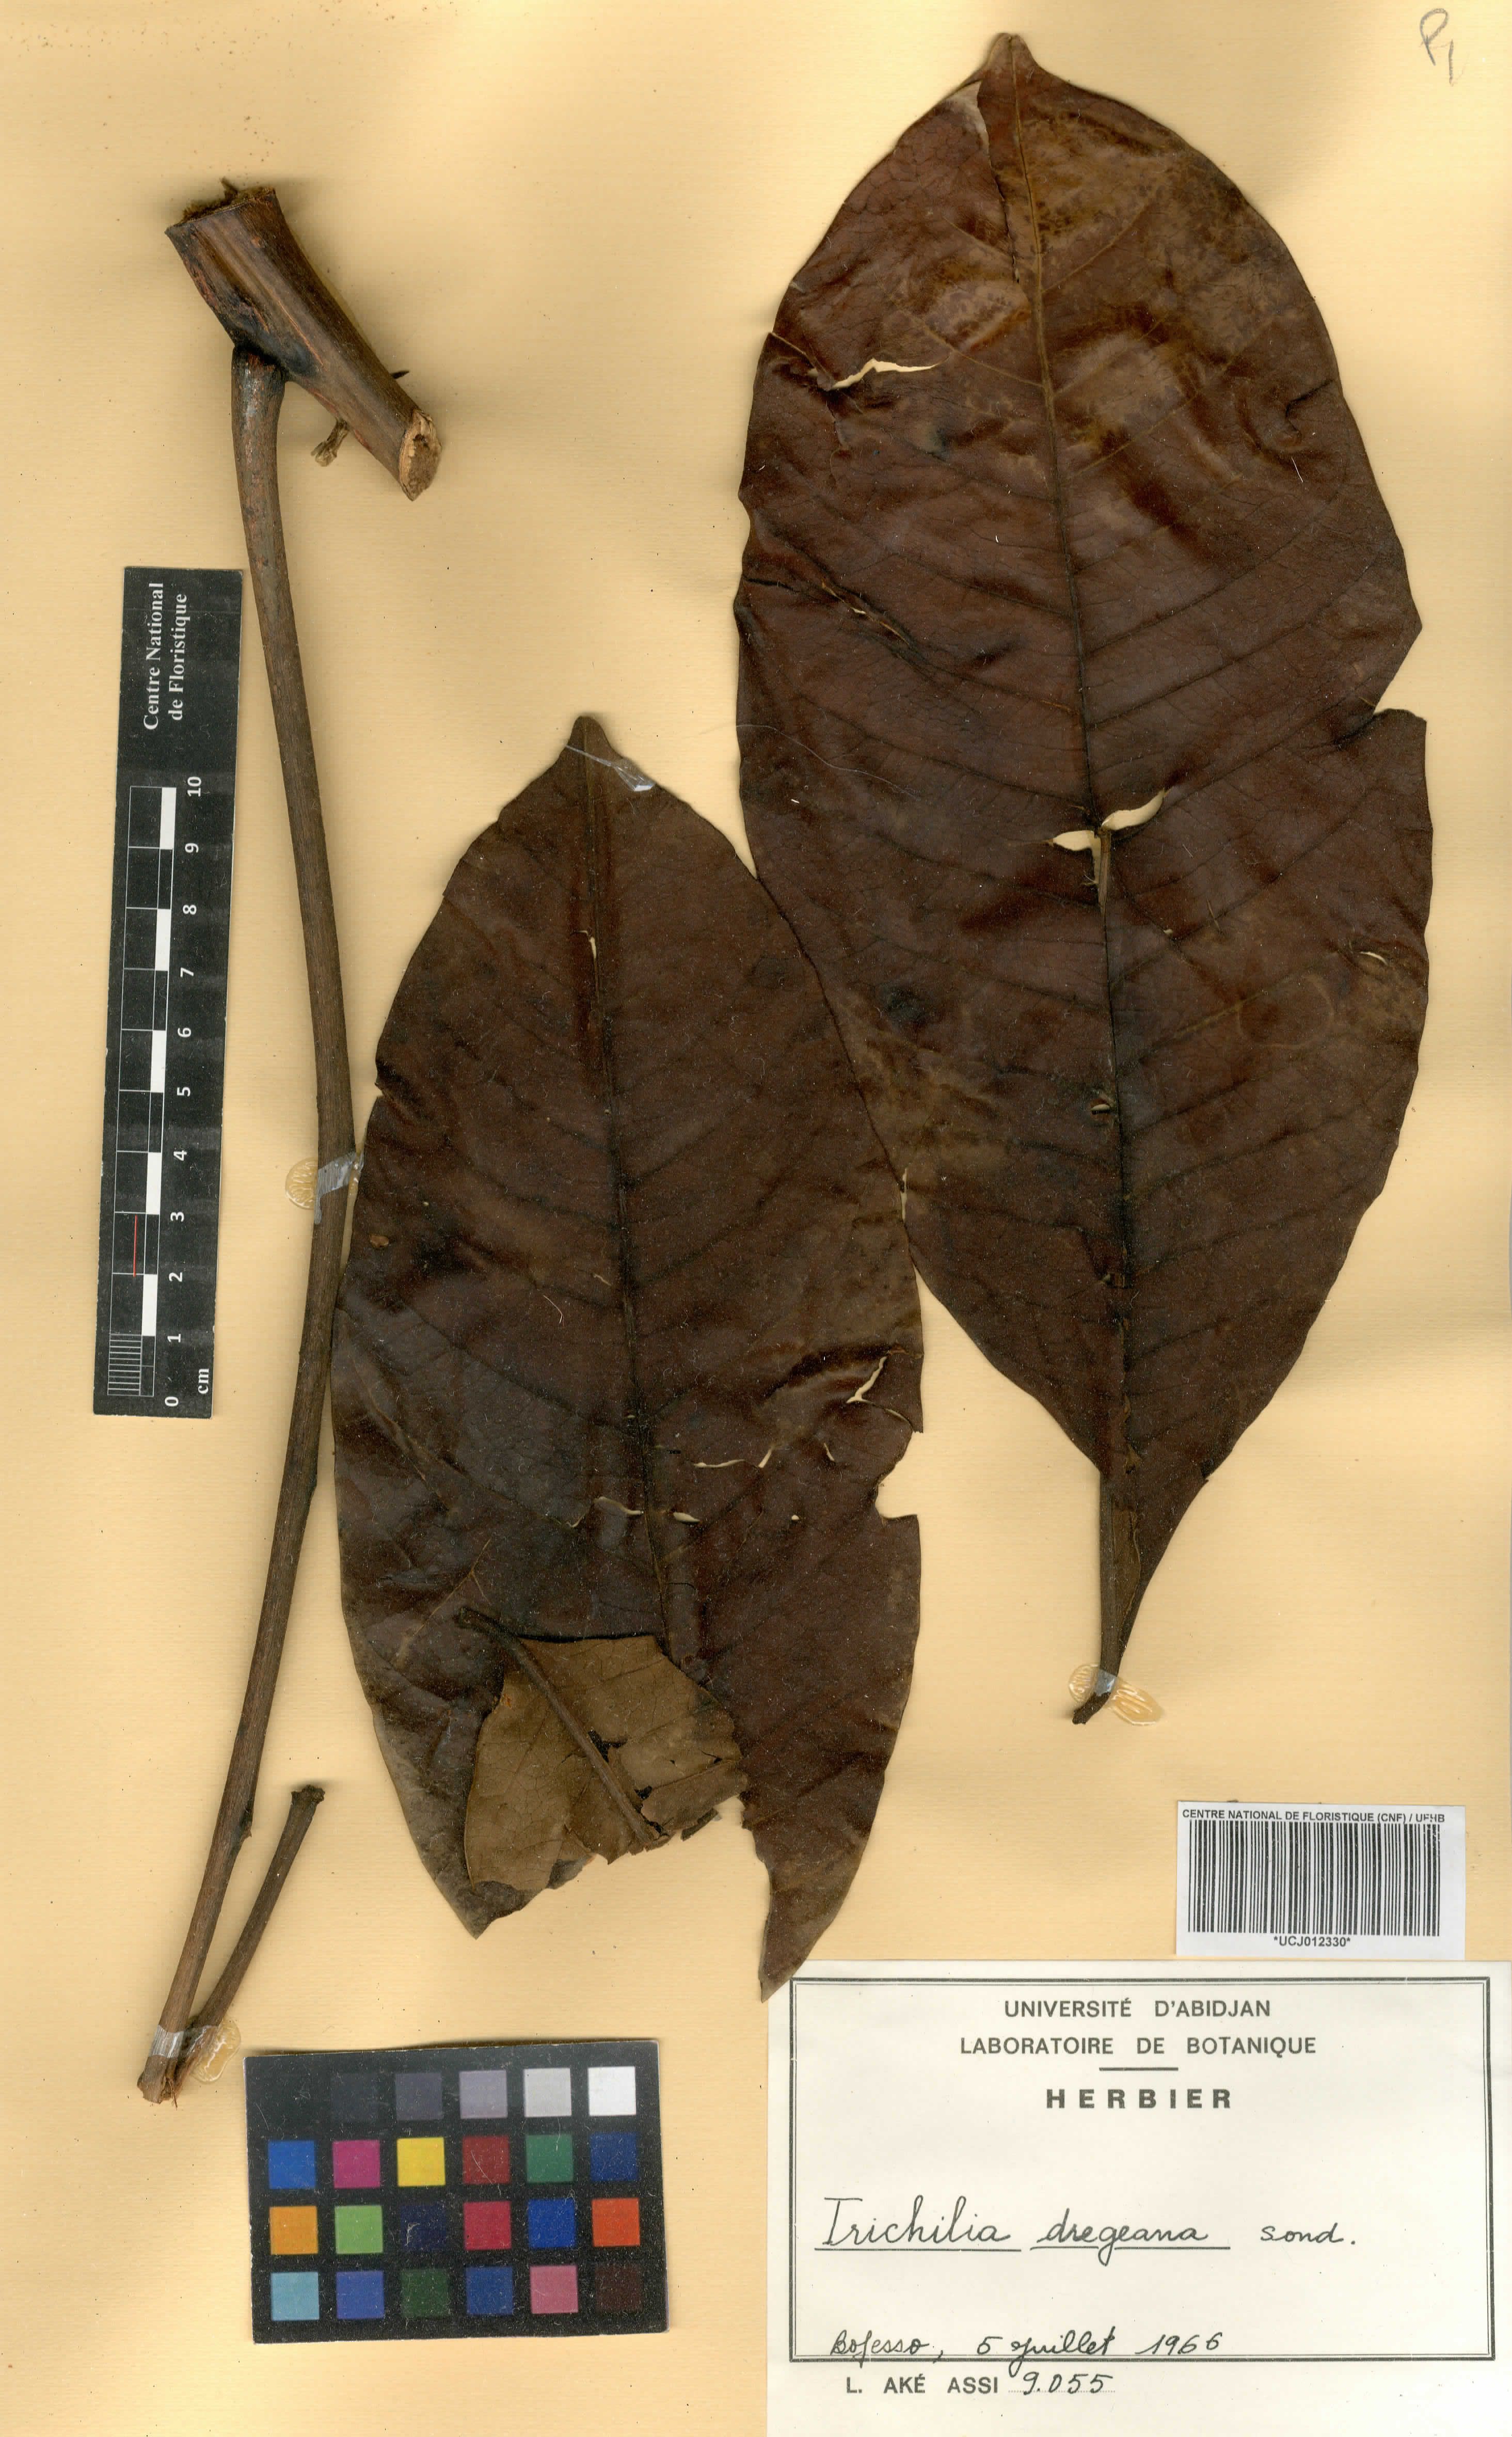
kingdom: Plantae
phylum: Tracheophyta
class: Magnoliopsida
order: Sapindales
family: Meliaceae
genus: Trichilia
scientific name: Trichilia dregeana
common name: Christmas-bells
